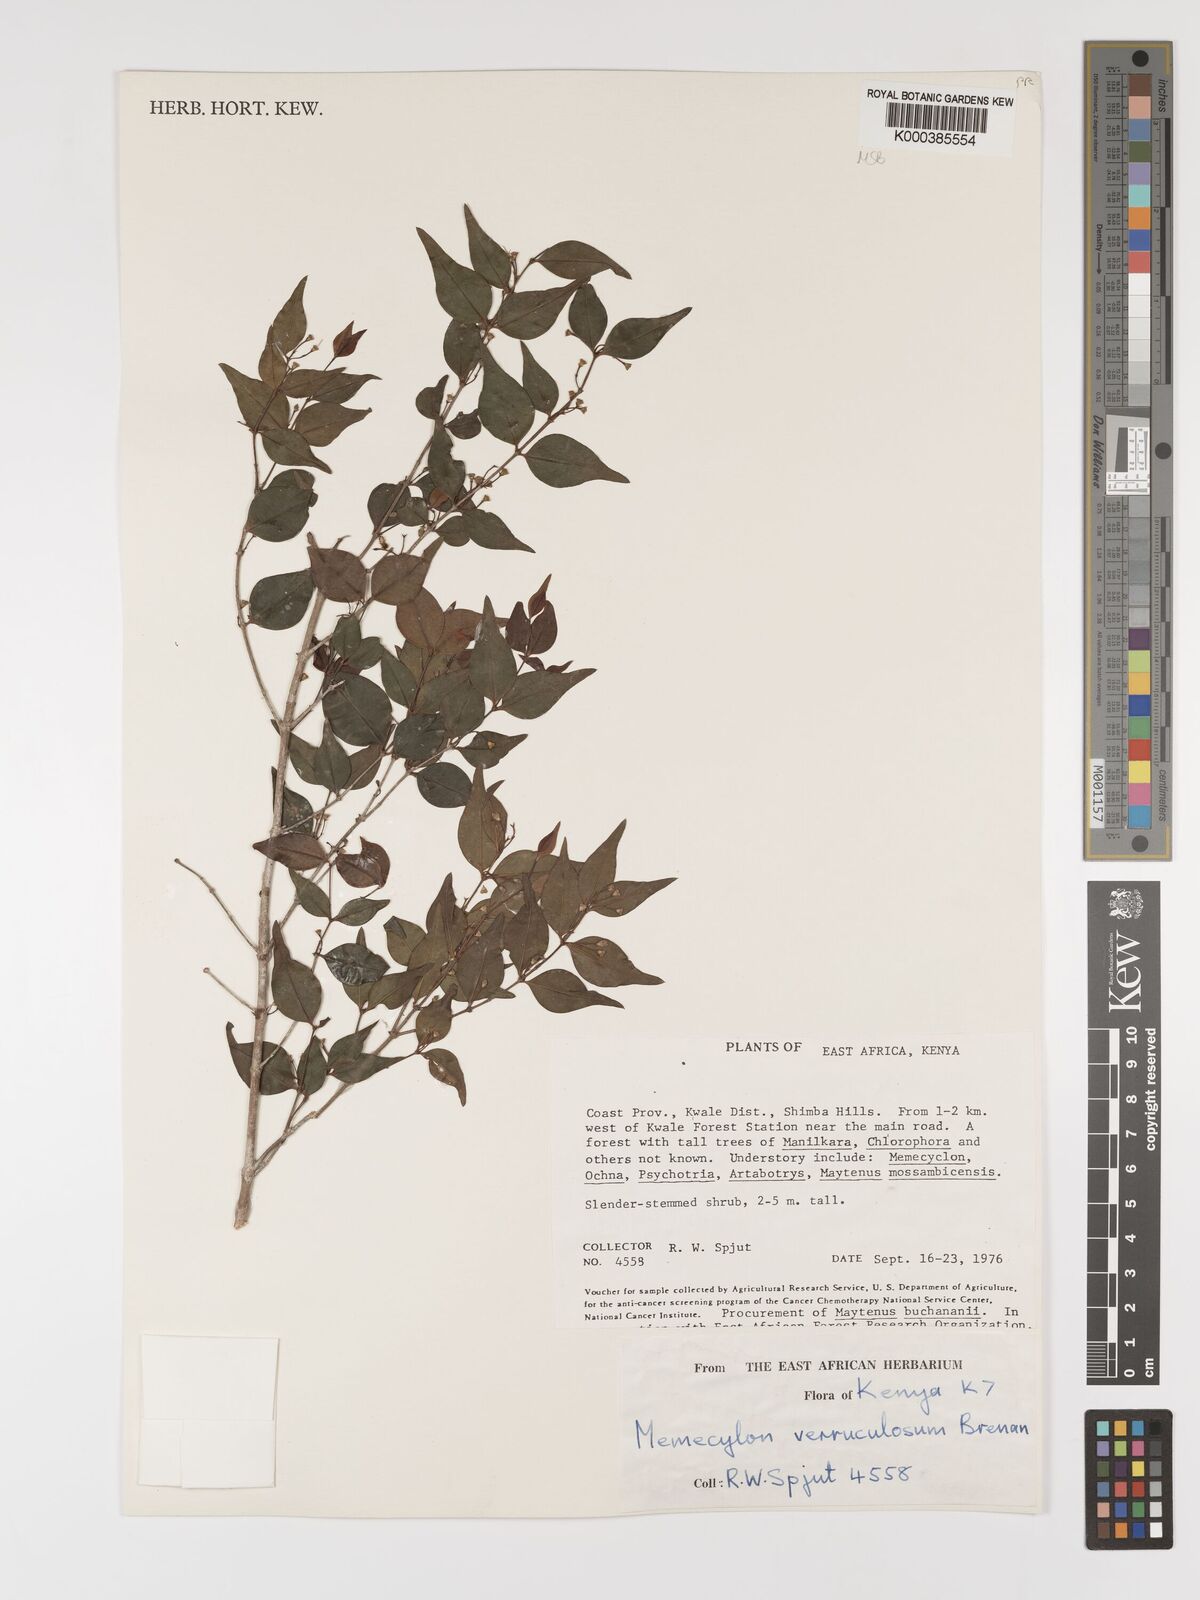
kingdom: Plantae
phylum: Tracheophyta
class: Magnoliopsida
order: Myrtales
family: Melastomataceae
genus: Memecylon
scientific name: Memecylon verruculosum
